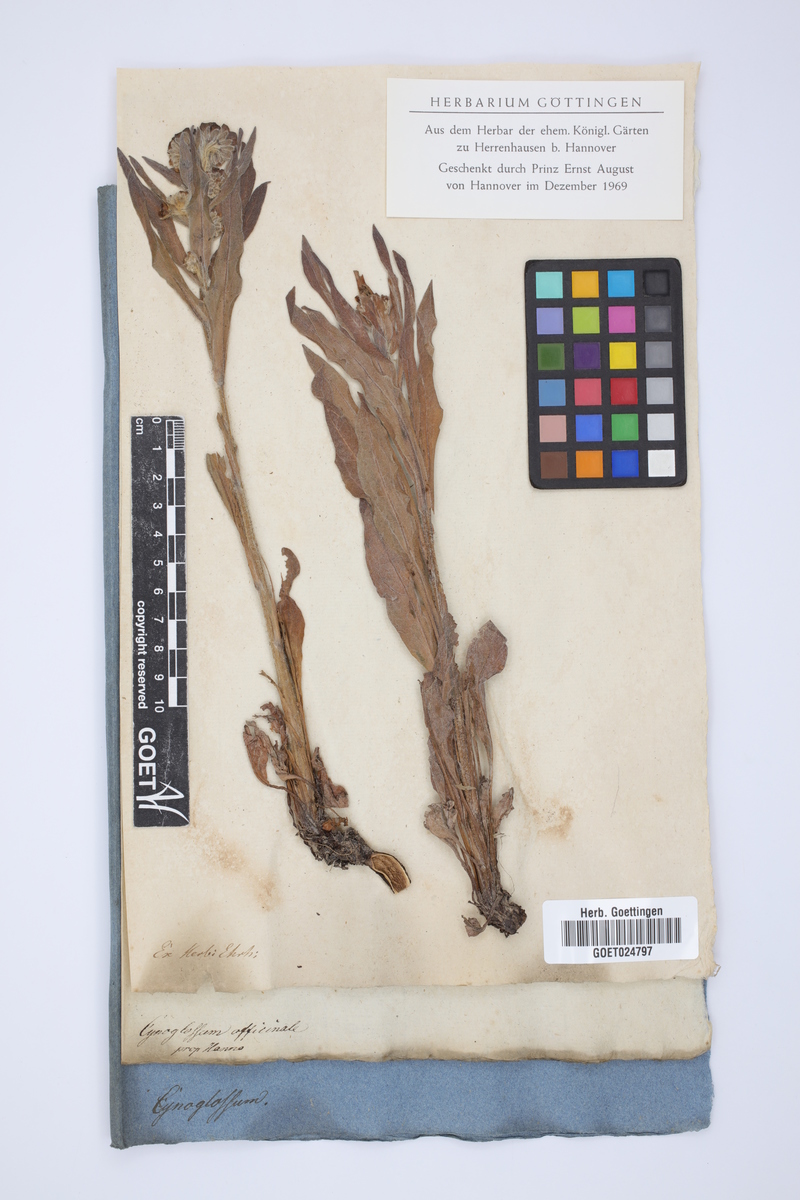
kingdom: Plantae
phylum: Tracheophyta
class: Magnoliopsida
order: Boraginales
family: Boraginaceae
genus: Cynoglossum
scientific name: Cynoglossum officinale
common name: Hound's-tongue
